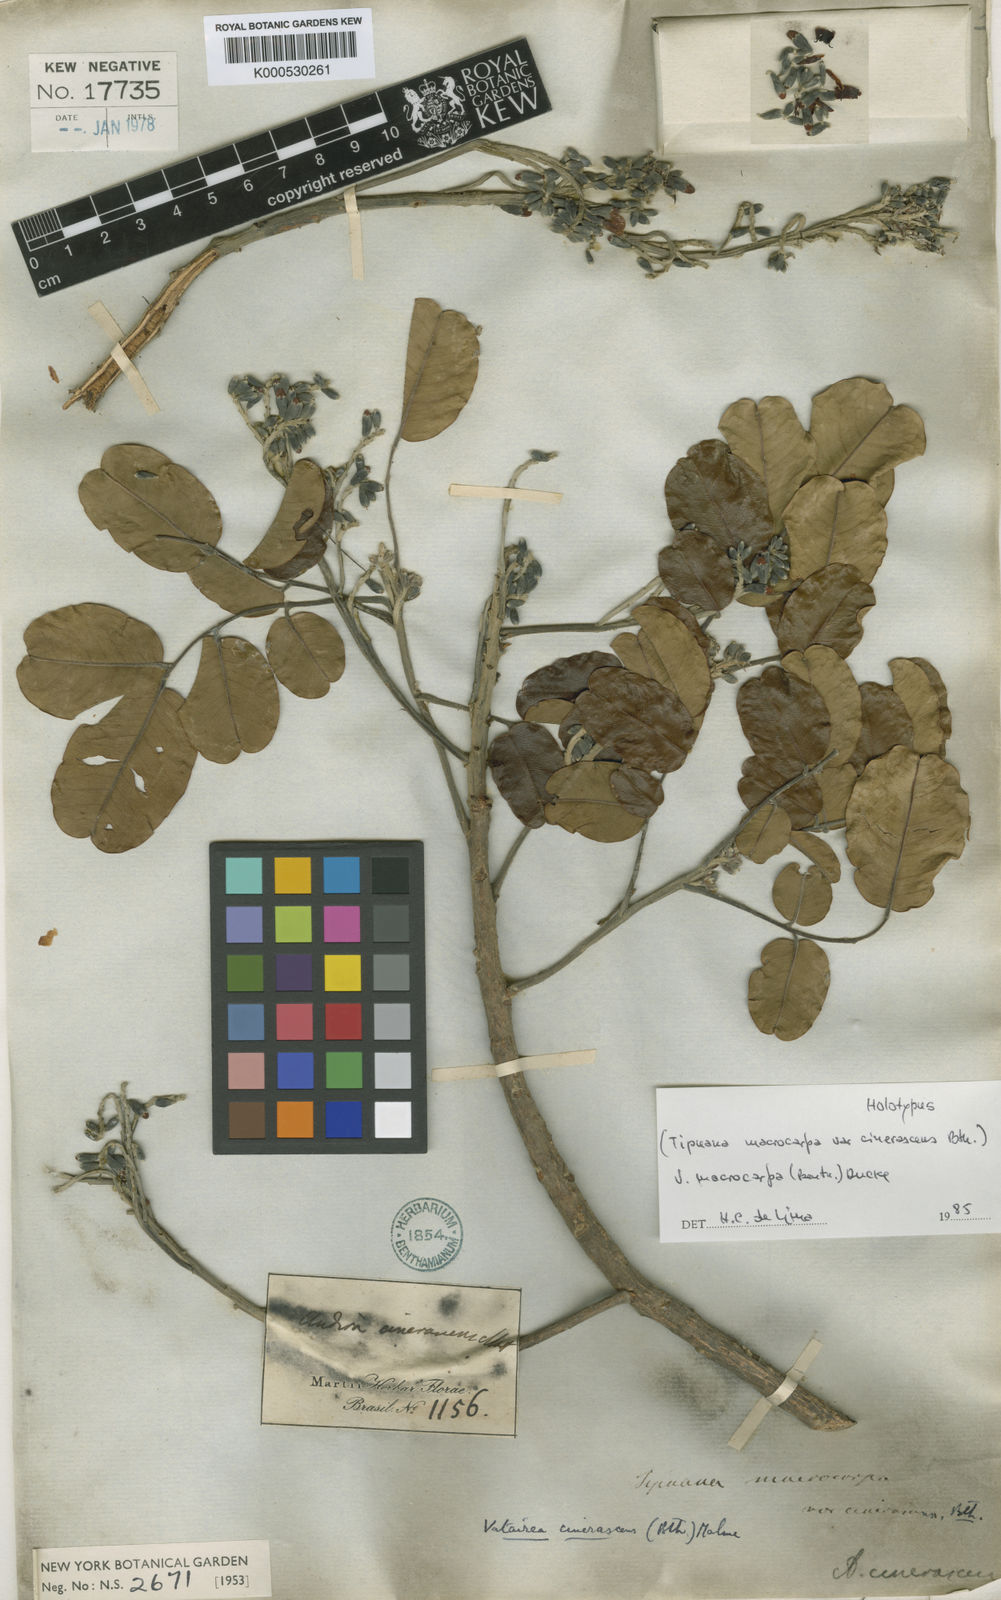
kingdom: Plantae
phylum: Tracheophyta
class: Magnoliopsida
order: Fabales
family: Fabaceae
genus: Vatairea
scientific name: Vatairea macrocarpa
